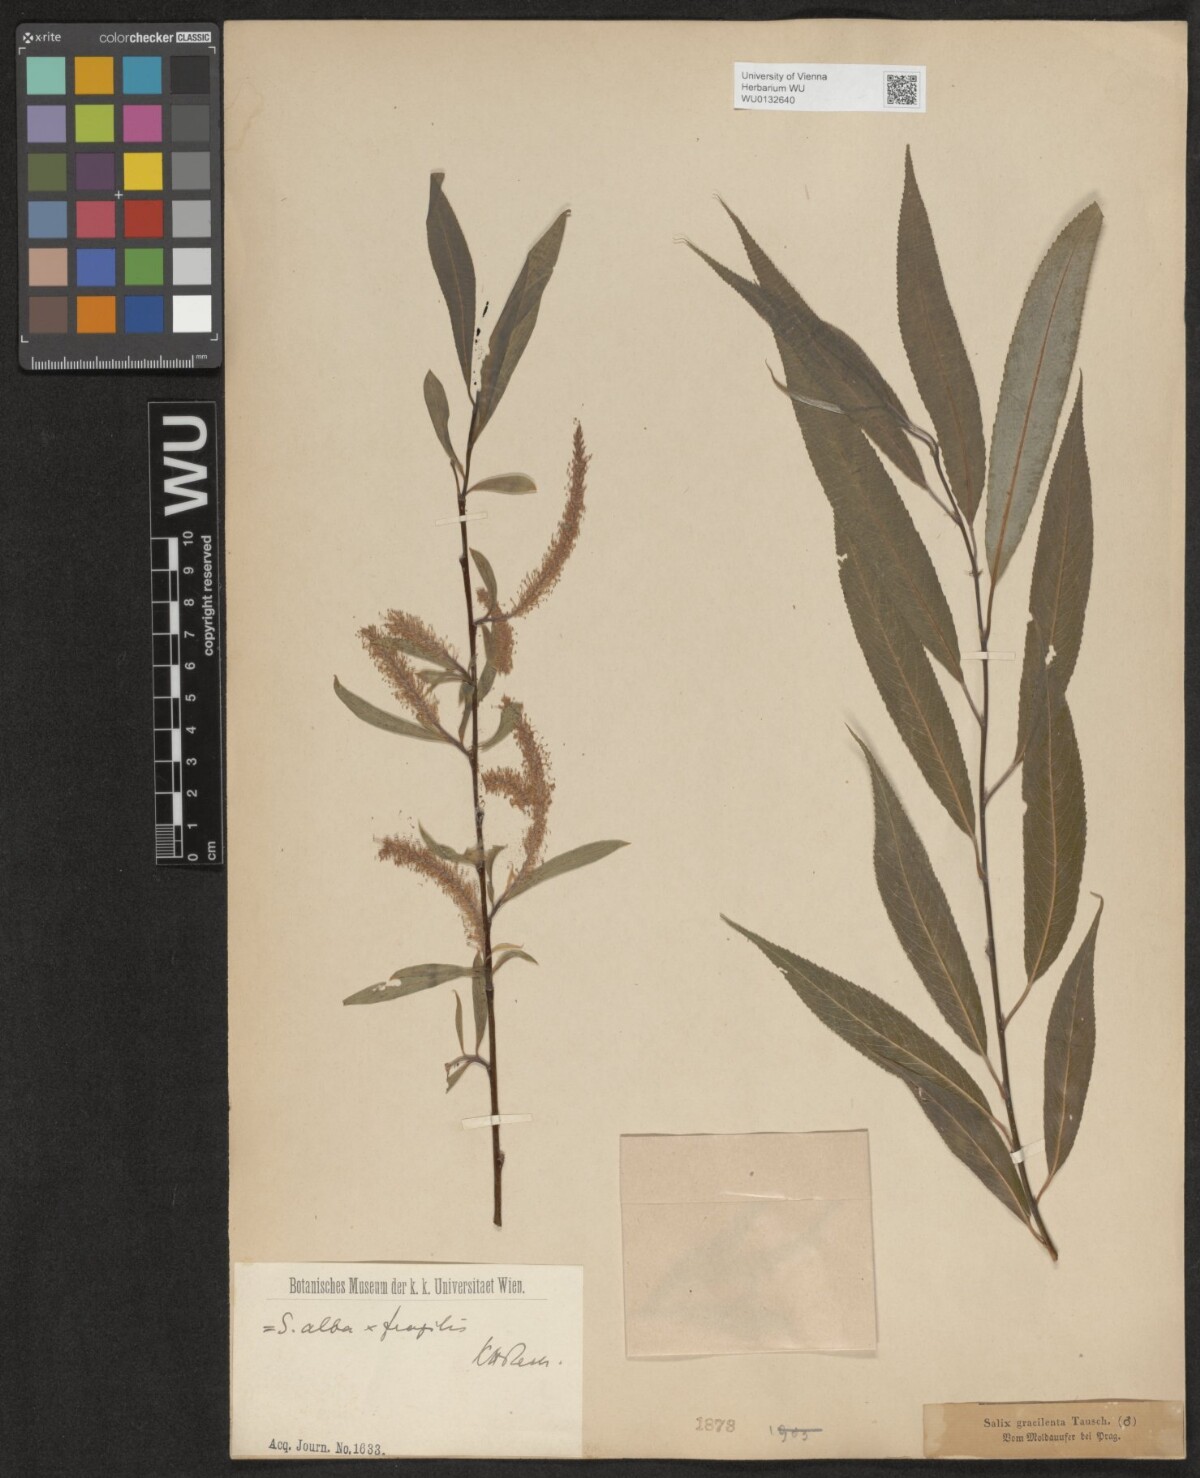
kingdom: Plantae
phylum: Tracheophyta
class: Magnoliopsida
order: Malpighiales
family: Salicaceae
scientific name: Salicaceae
